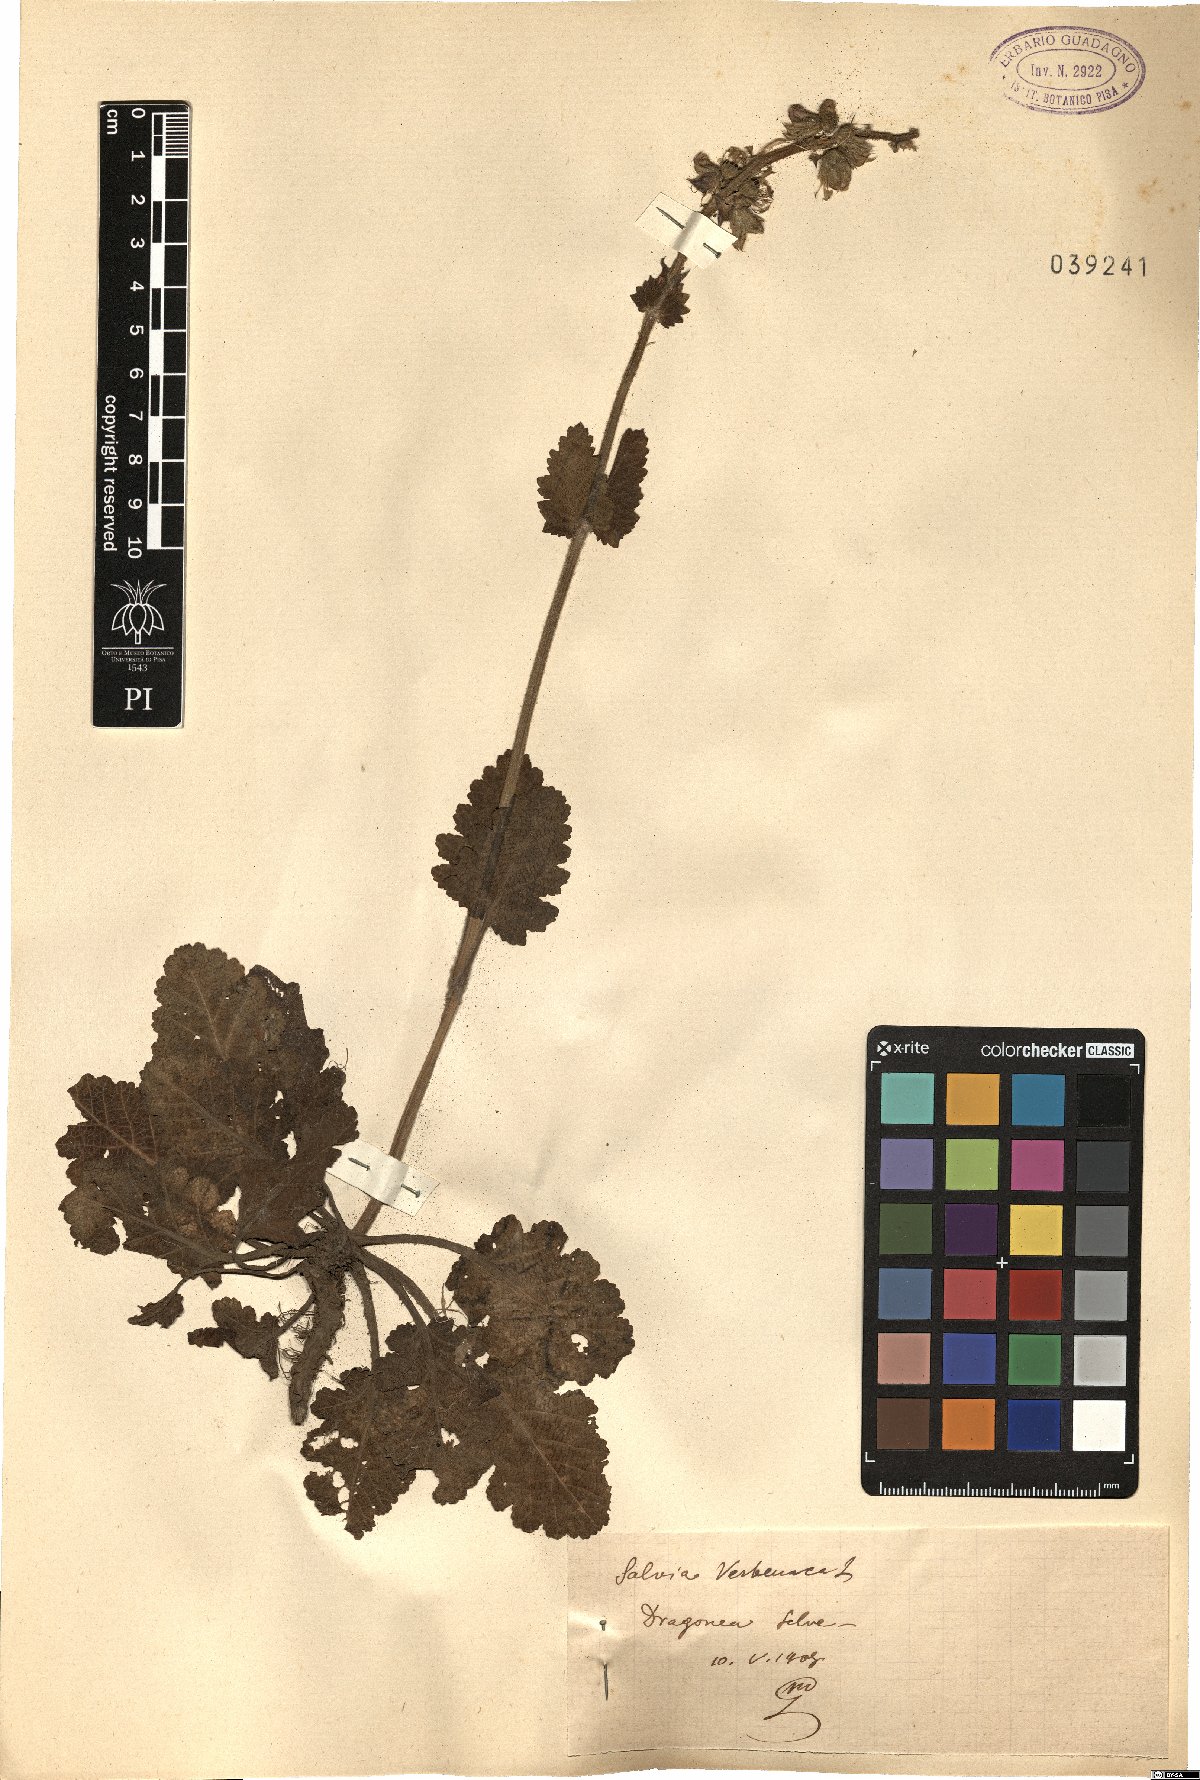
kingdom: Plantae
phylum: Tracheophyta
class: Magnoliopsida
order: Lamiales
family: Lamiaceae
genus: Salvia
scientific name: Salvia verbenaca
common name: Wild clary
